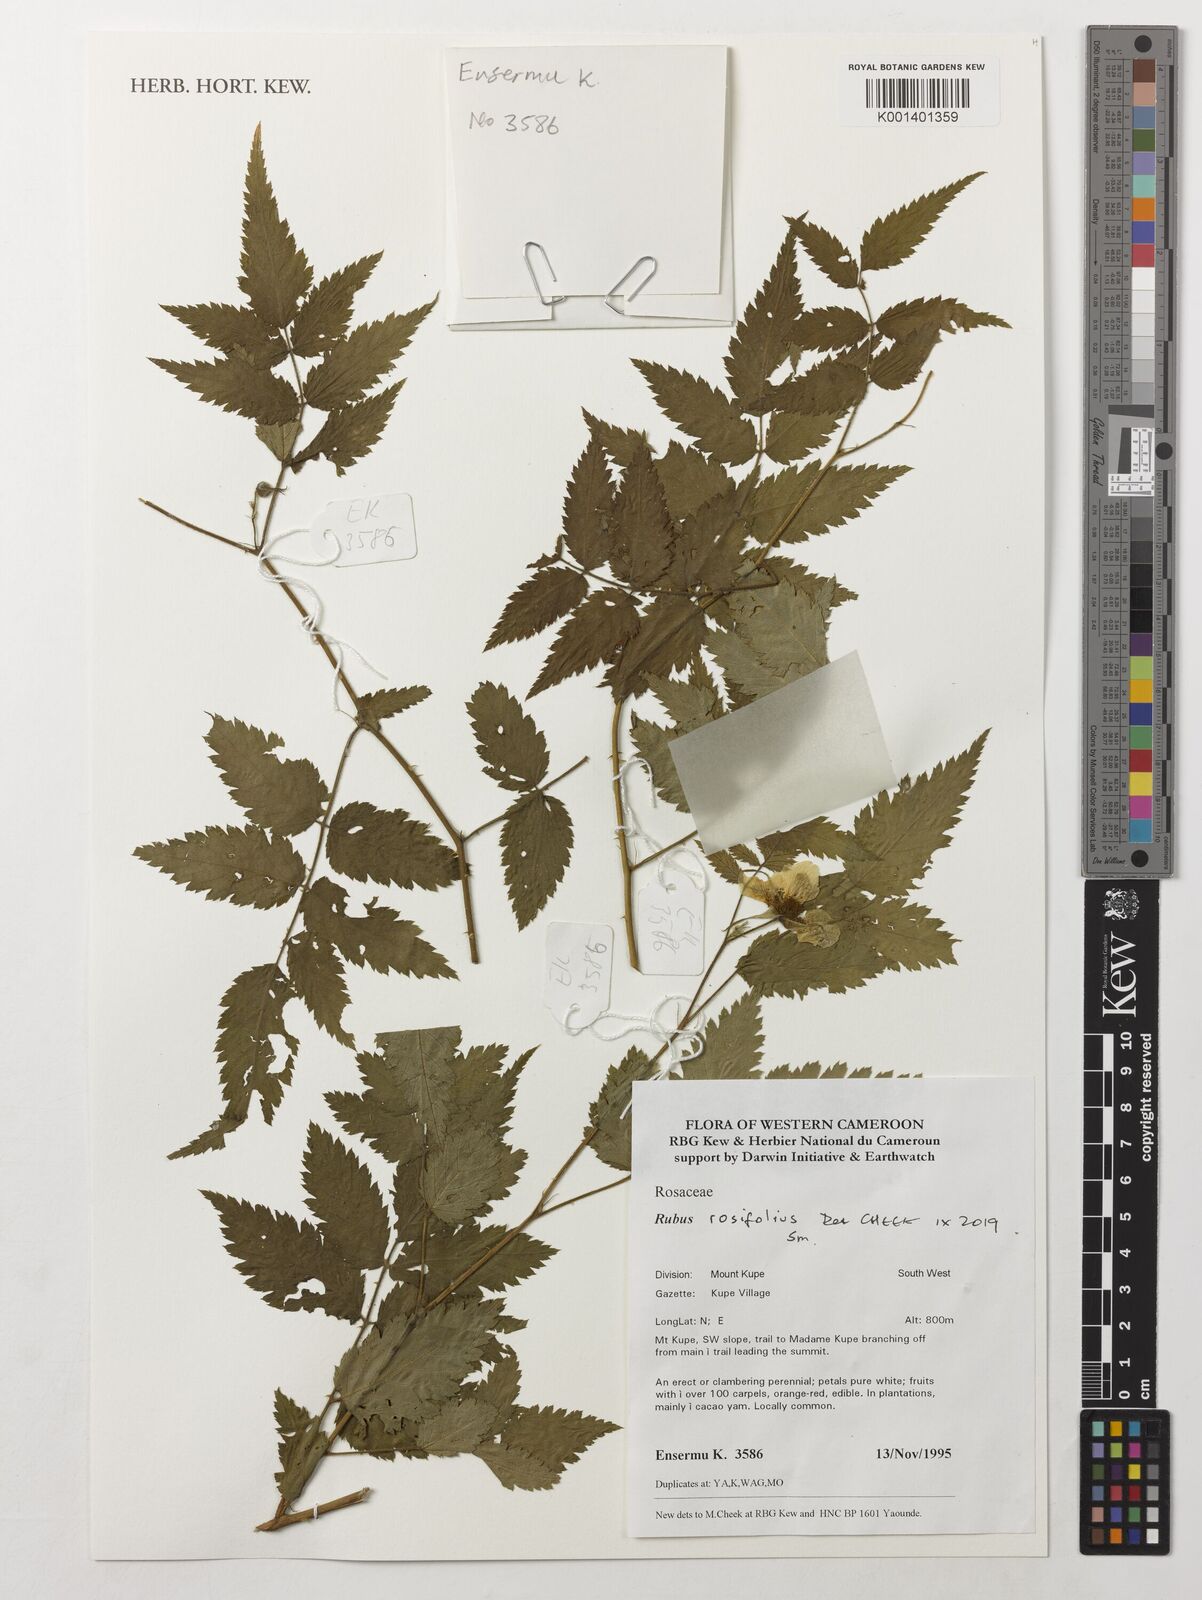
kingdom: Plantae
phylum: Tracheophyta
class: Magnoliopsida
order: Rosales
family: Rosaceae
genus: Rubus
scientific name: Rubus rosifolius
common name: Roseleaf raspberry
